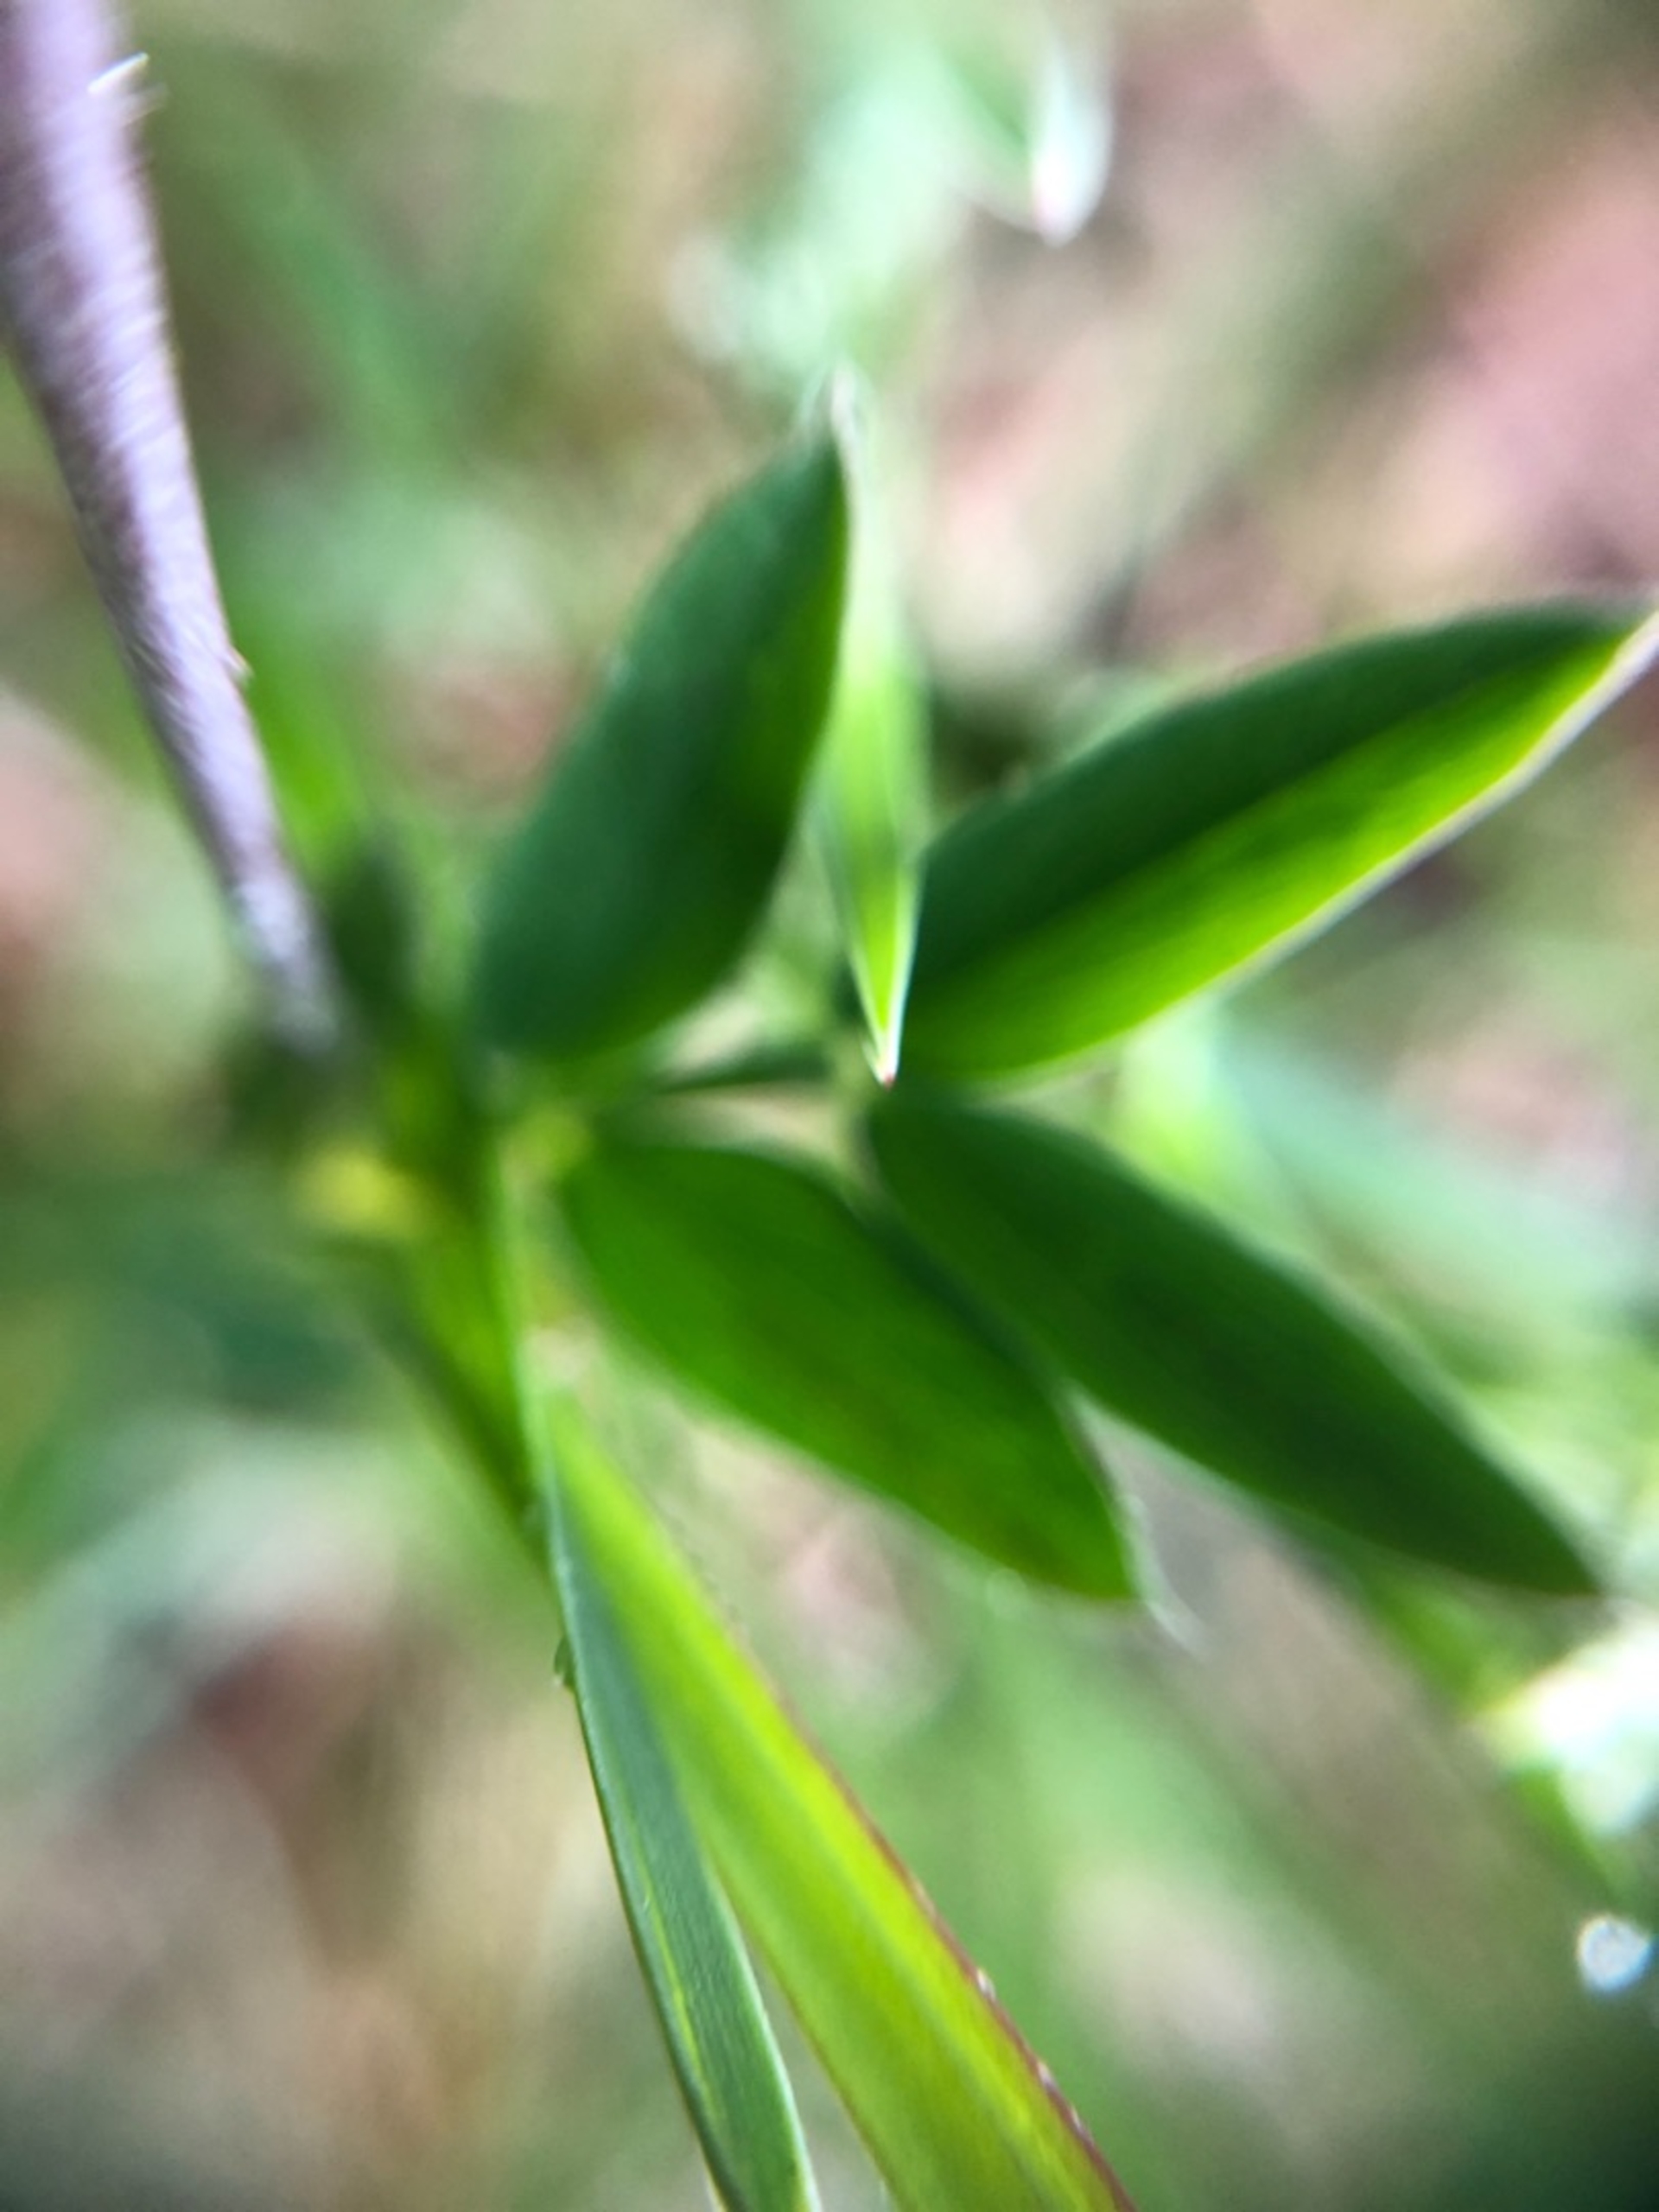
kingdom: Plantae
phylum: Tracheophyta
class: Magnoliopsida
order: Fabales
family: Fabaceae
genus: Lathyrus
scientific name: Lathyrus linifolius
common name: Krat-fladbælg
